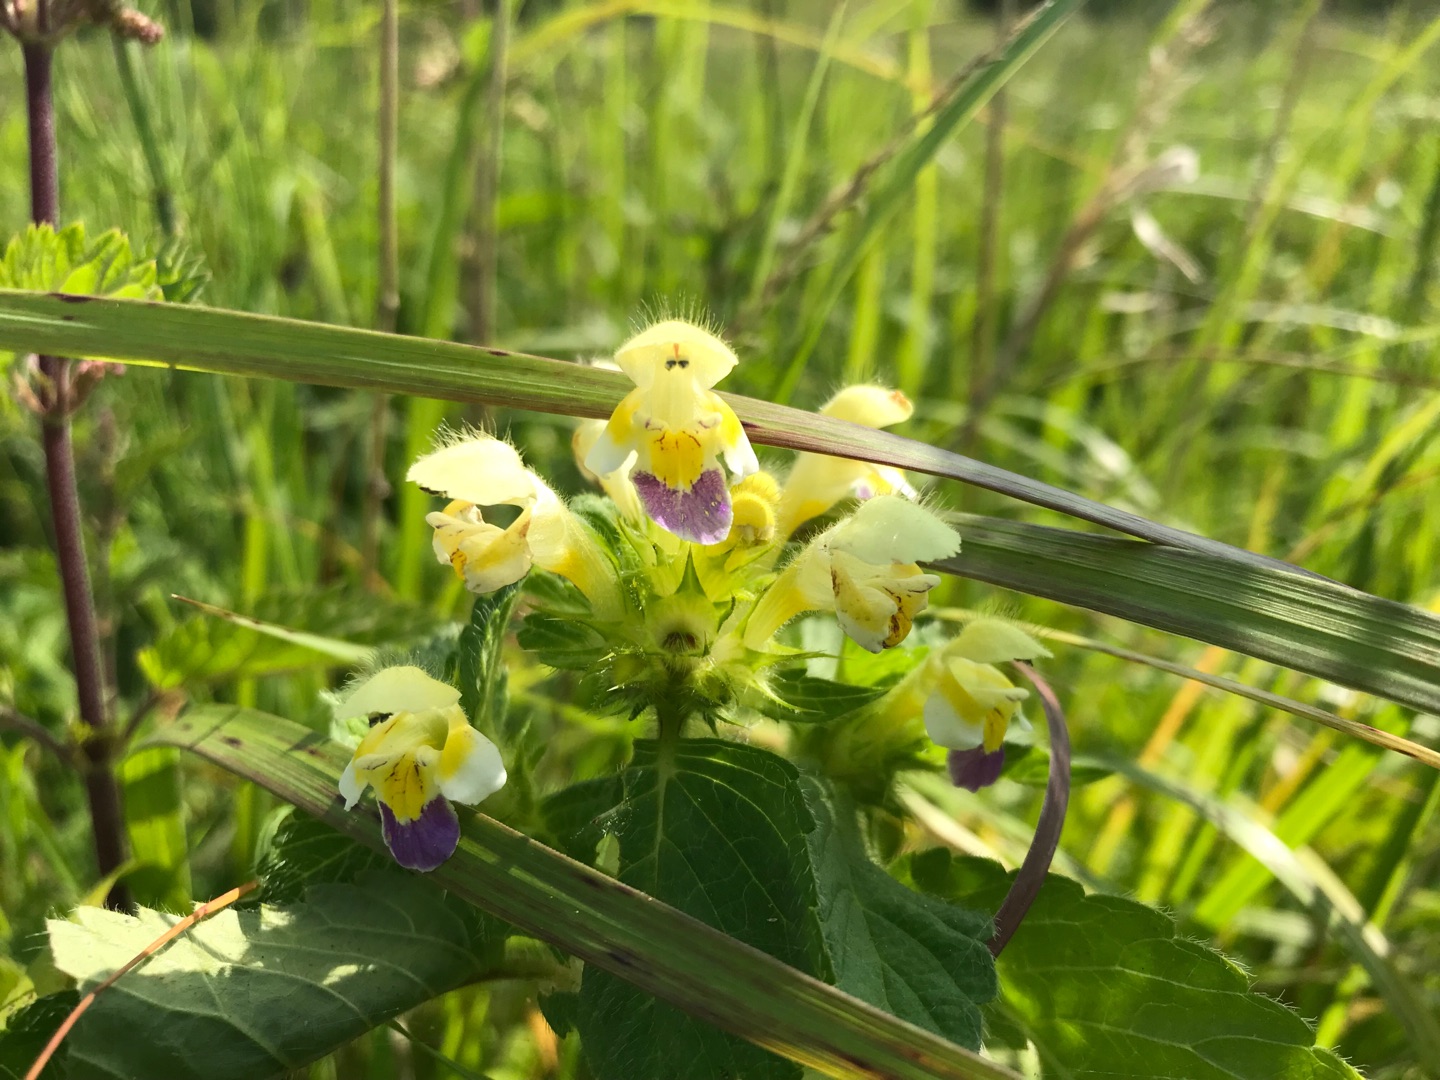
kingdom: Plantae
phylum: Tracheophyta
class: Magnoliopsida
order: Lamiales
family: Lamiaceae
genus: Galeopsis
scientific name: Galeopsis speciosa
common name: Hamp-hanekro
